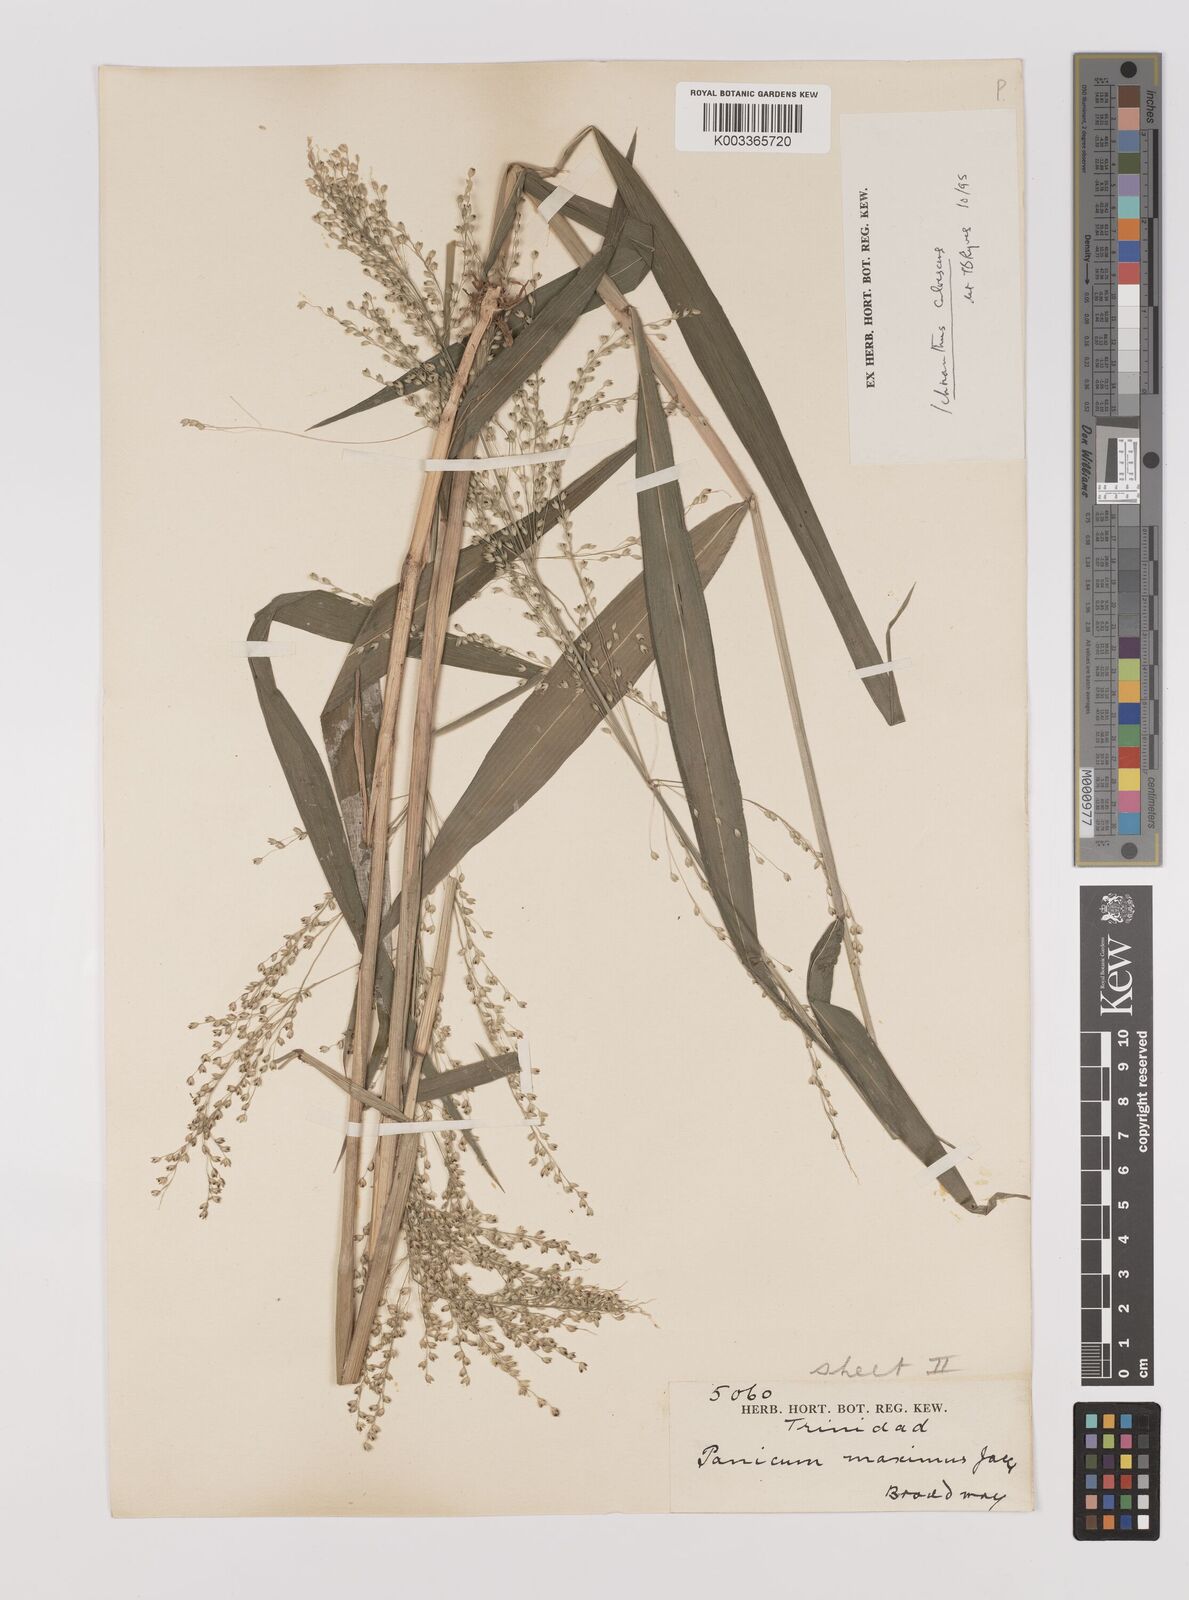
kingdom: Plantae
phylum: Tracheophyta
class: Liliopsida
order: Poales
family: Poaceae
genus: Ichnanthus
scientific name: Ichnanthus calvescens
